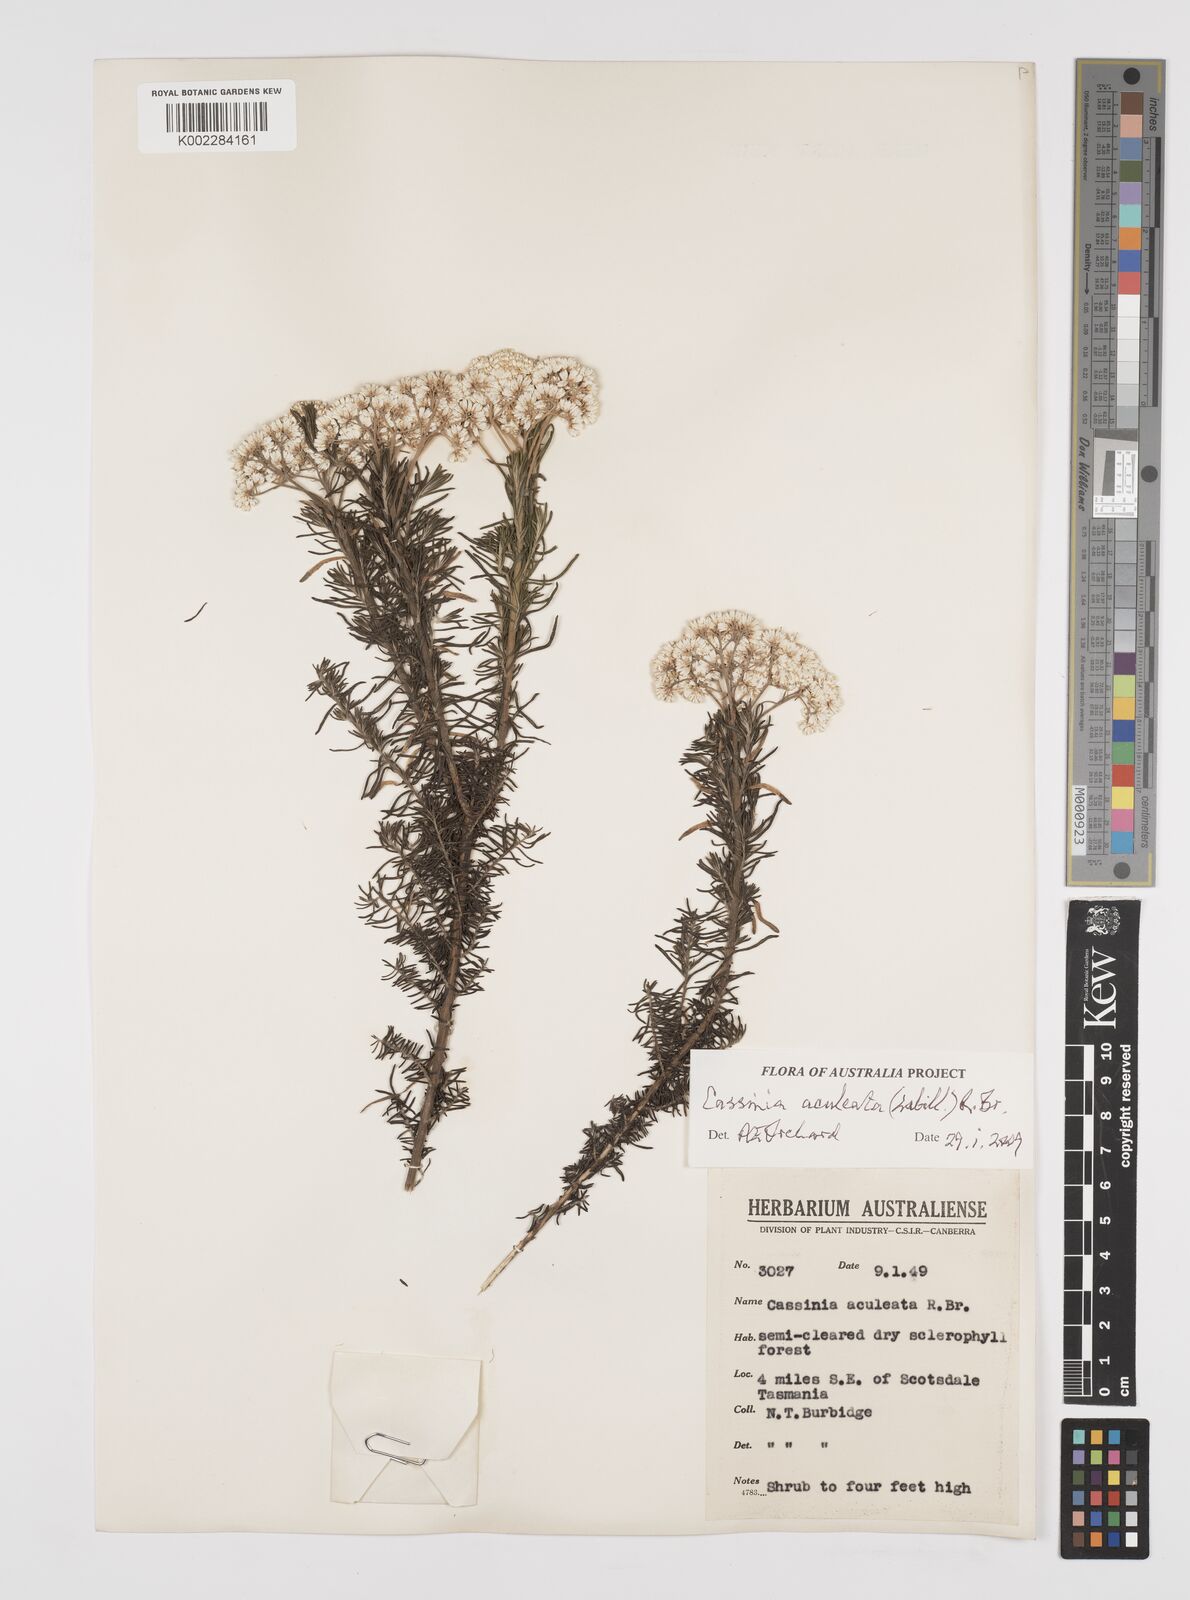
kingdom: Plantae
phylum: Tracheophyta
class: Magnoliopsida
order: Asterales
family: Asteraceae
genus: Cassinia
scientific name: Cassinia aculeata
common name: Australian tauhinu
